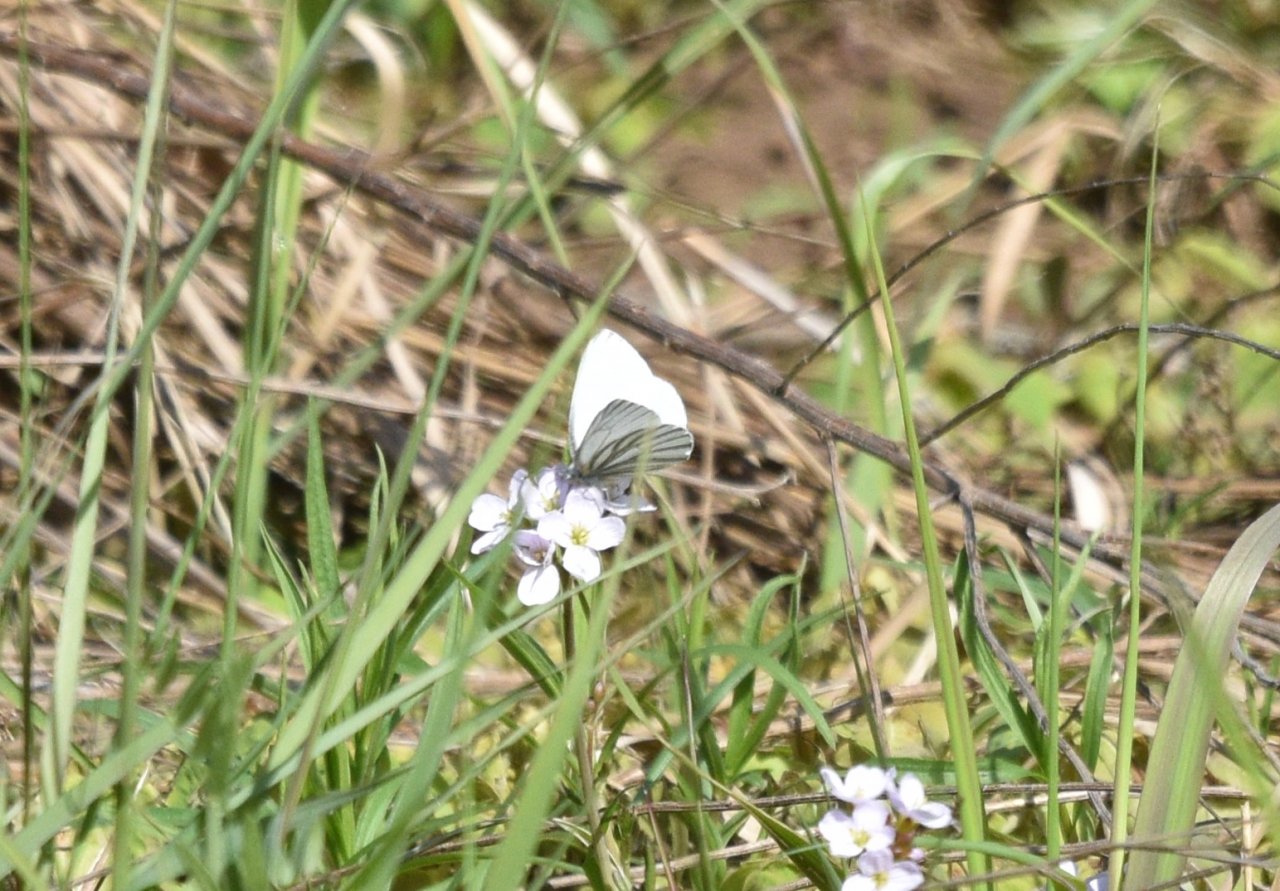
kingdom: Animalia
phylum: Arthropoda
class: Insecta
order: Lepidoptera
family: Pieridae
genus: Pieris
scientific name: Pieris oleracea
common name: Mustard White
